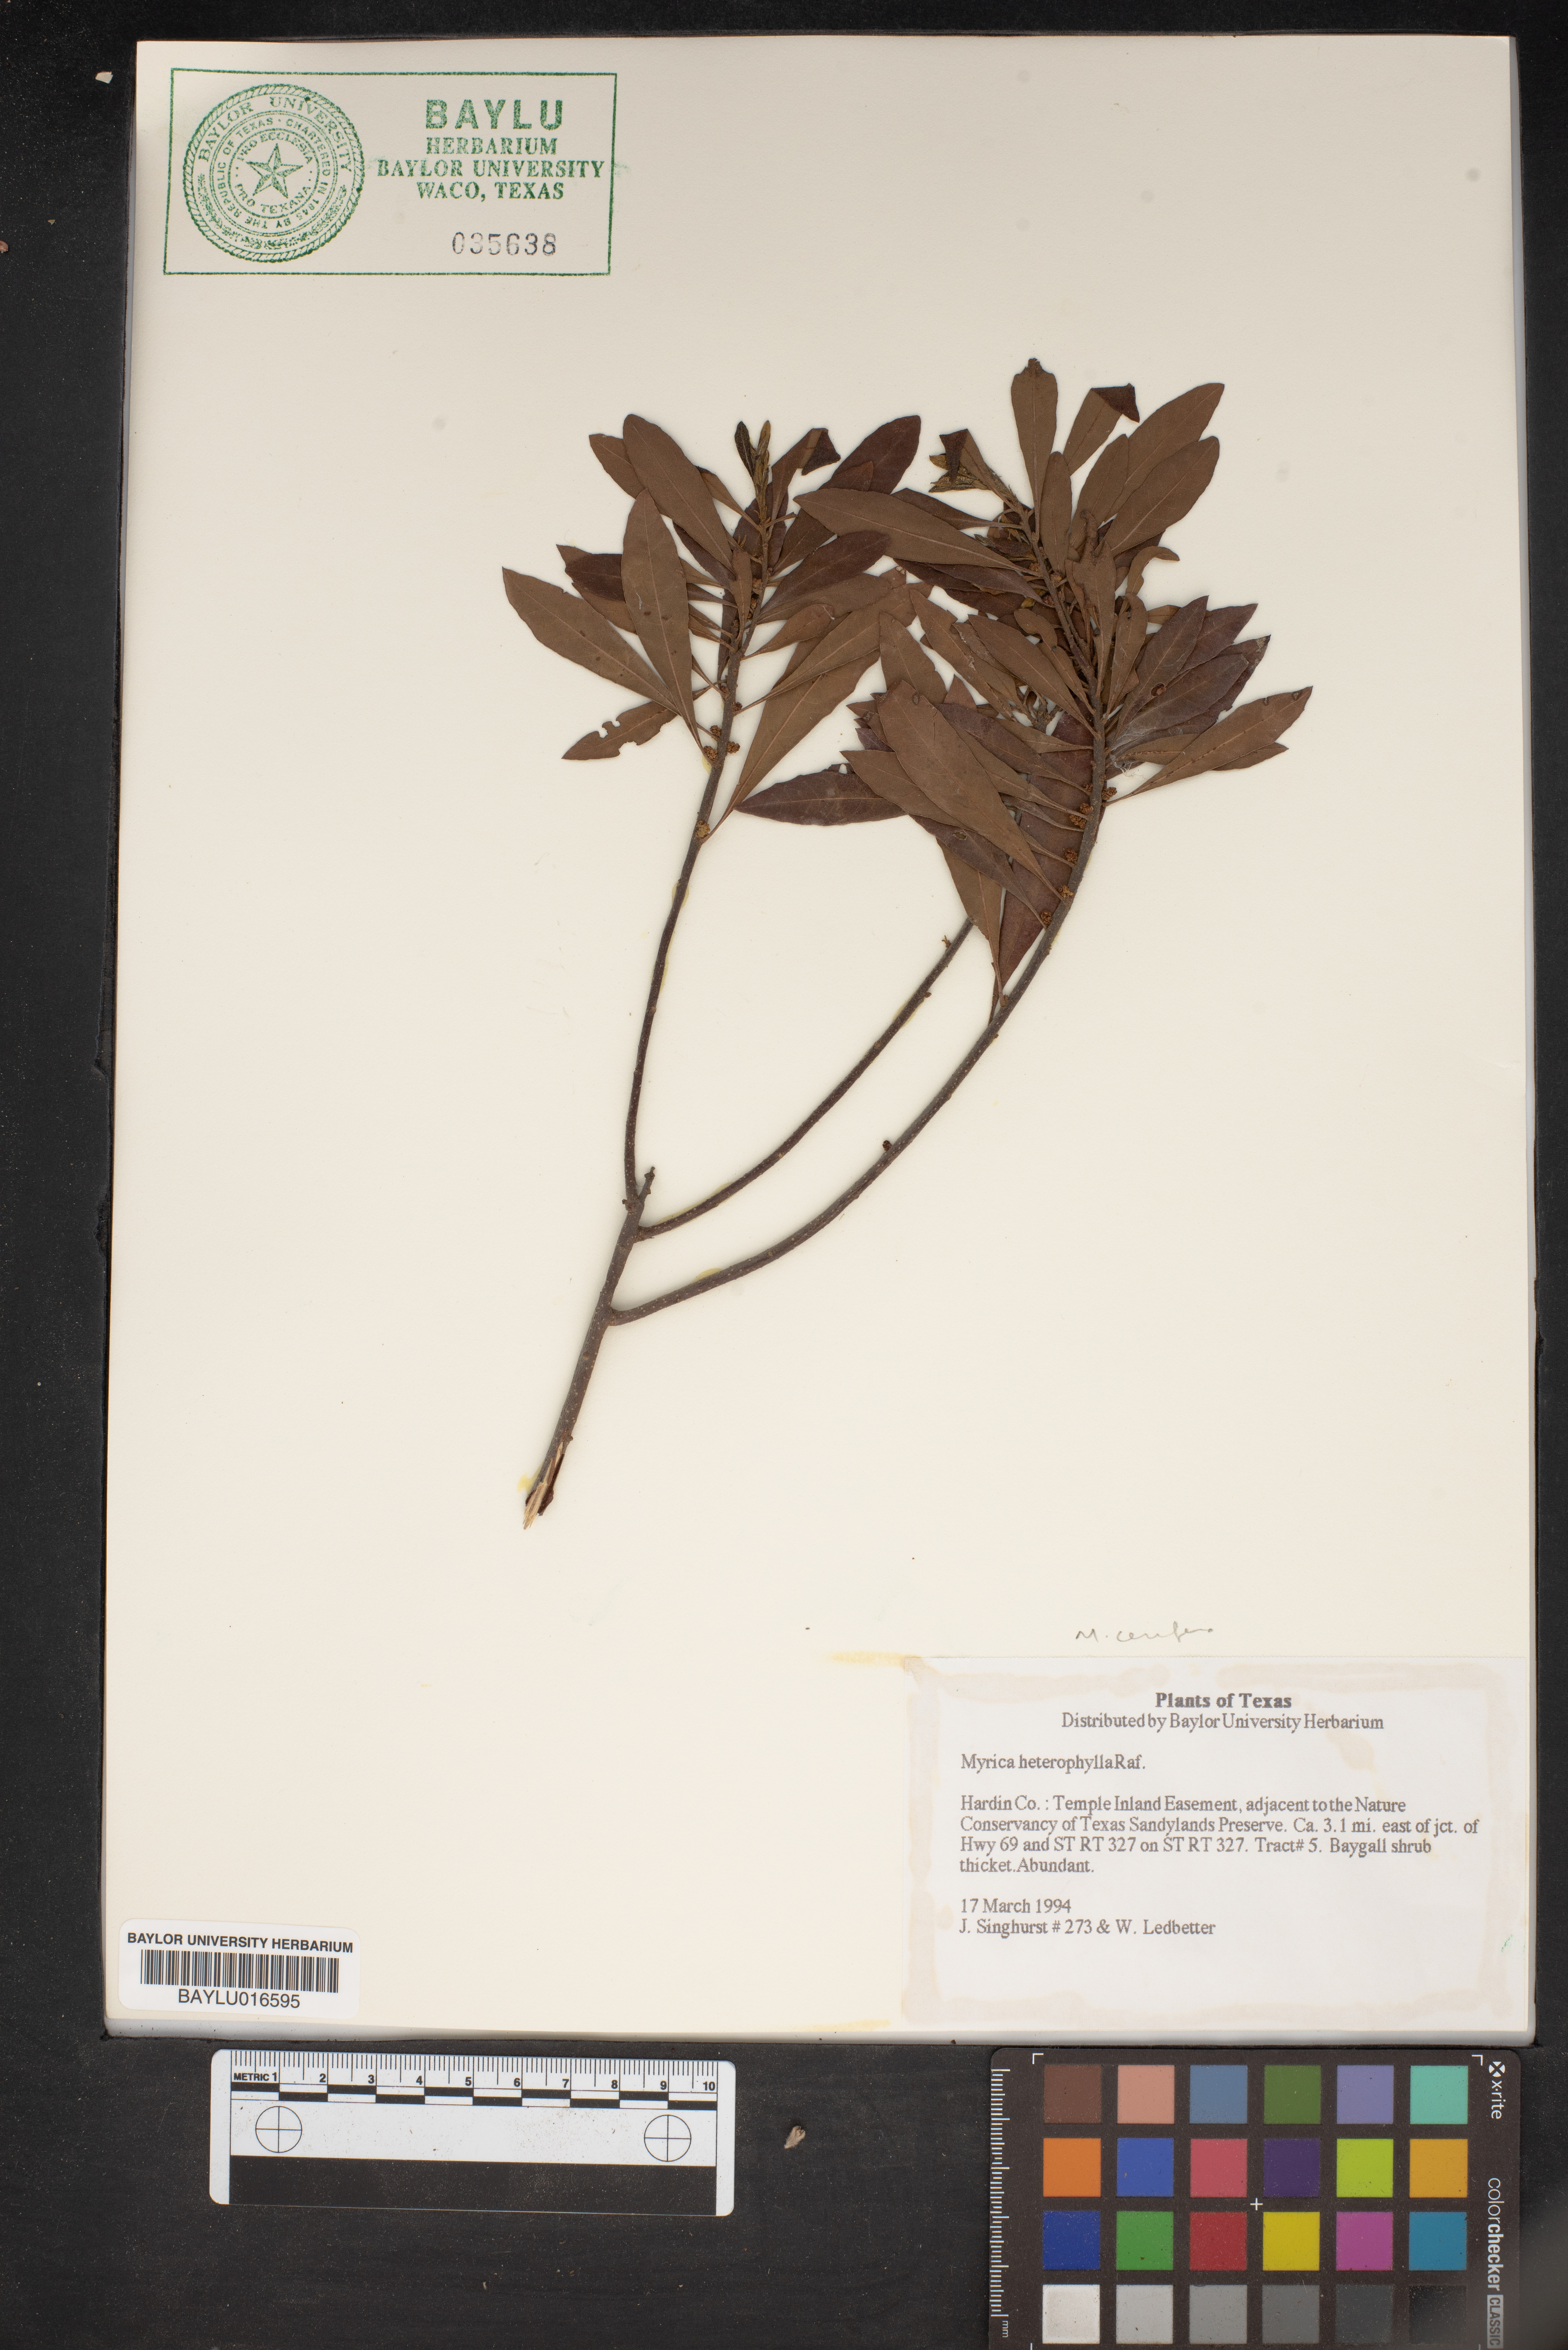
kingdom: Plantae
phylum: Tracheophyta
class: Magnoliopsida
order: Fagales
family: Myricaceae
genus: Morella
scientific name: Morella caroliniensis
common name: Evergreen bayberry
